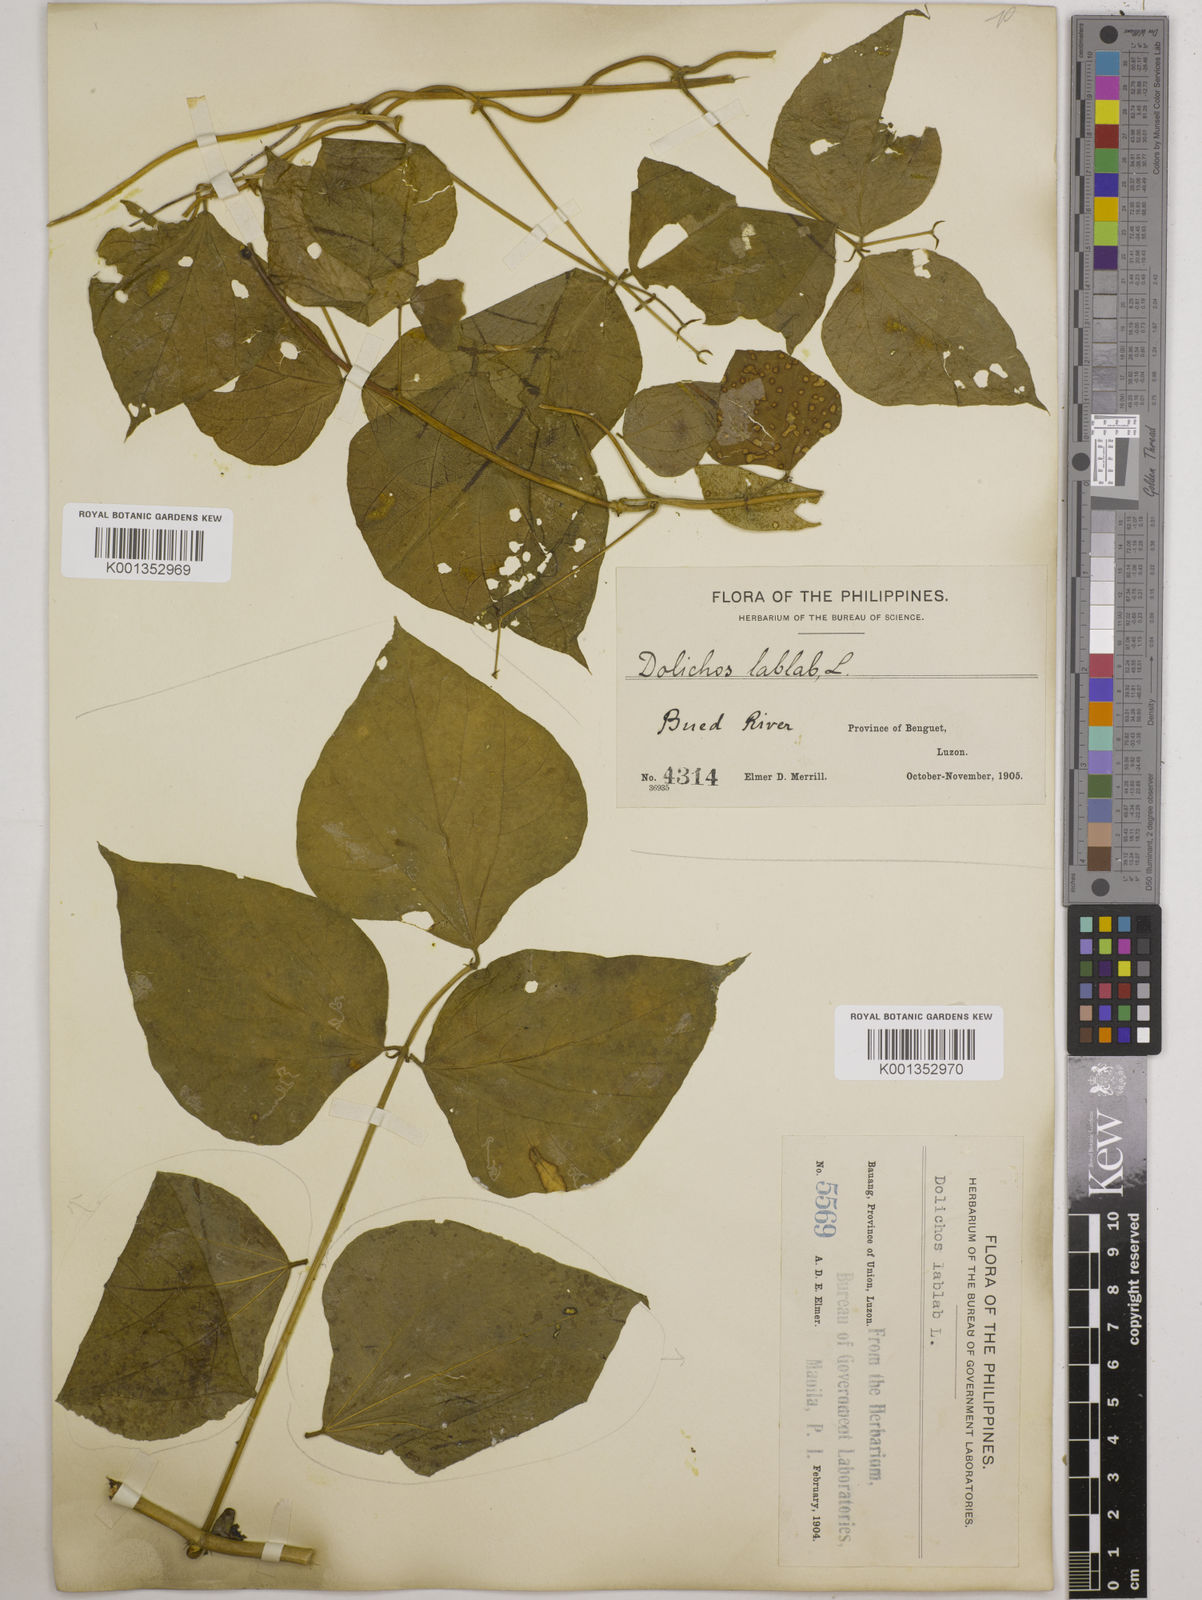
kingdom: Plantae
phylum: Tracheophyta
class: Magnoliopsida
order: Fabales
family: Fabaceae
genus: Lablab
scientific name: Lablab purpureus
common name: Lablab-bean
